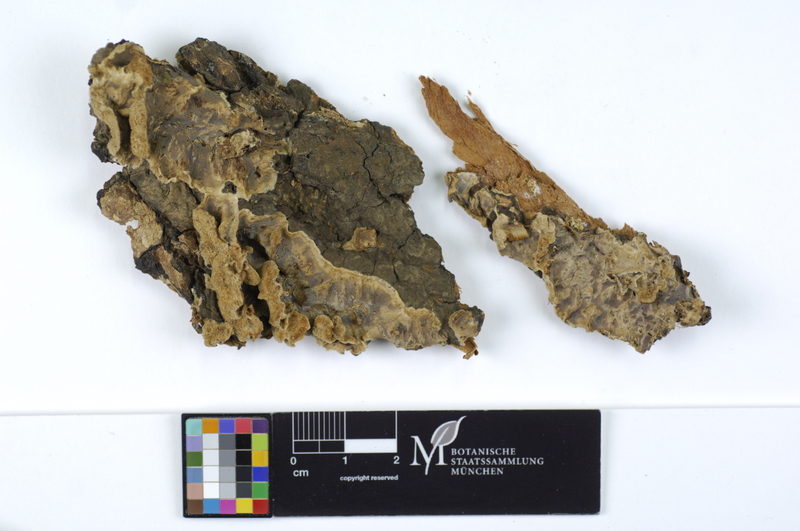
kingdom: Plantae
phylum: Tracheophyta
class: Magnoliopsida
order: Sapindales
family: Sapindaceae
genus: Acer
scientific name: Acer platanoides
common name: Norway maple
